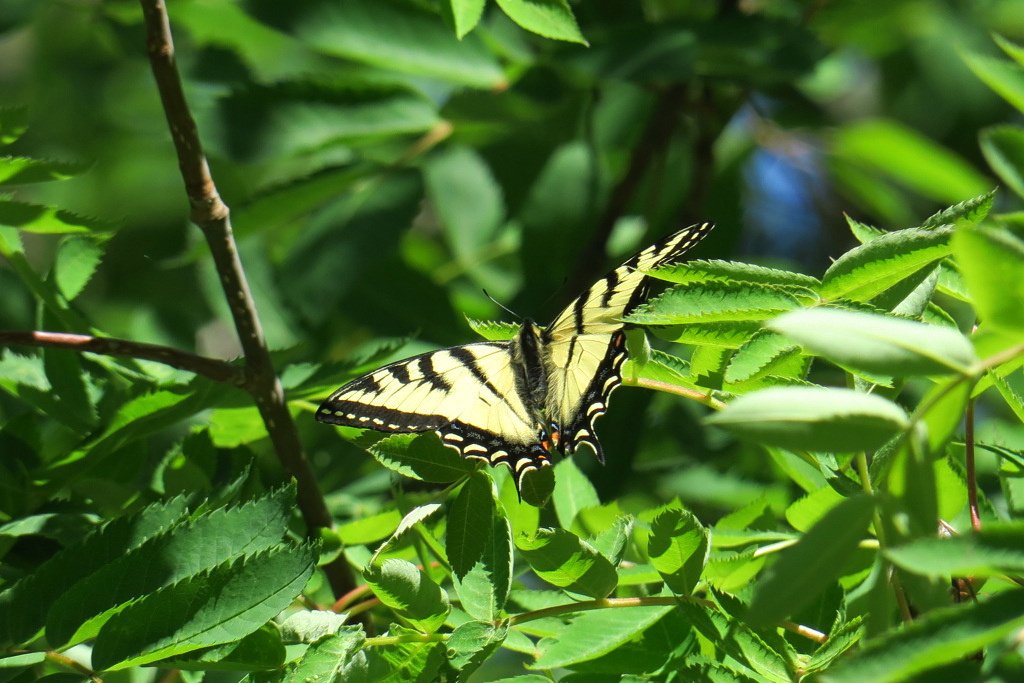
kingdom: Animalia
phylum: Arthropoda
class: Insecta
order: Lepidoptera
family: Papilionidae
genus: Pterourus
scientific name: Pterourus canadensis
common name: Canadian Tiger Swallowtail
